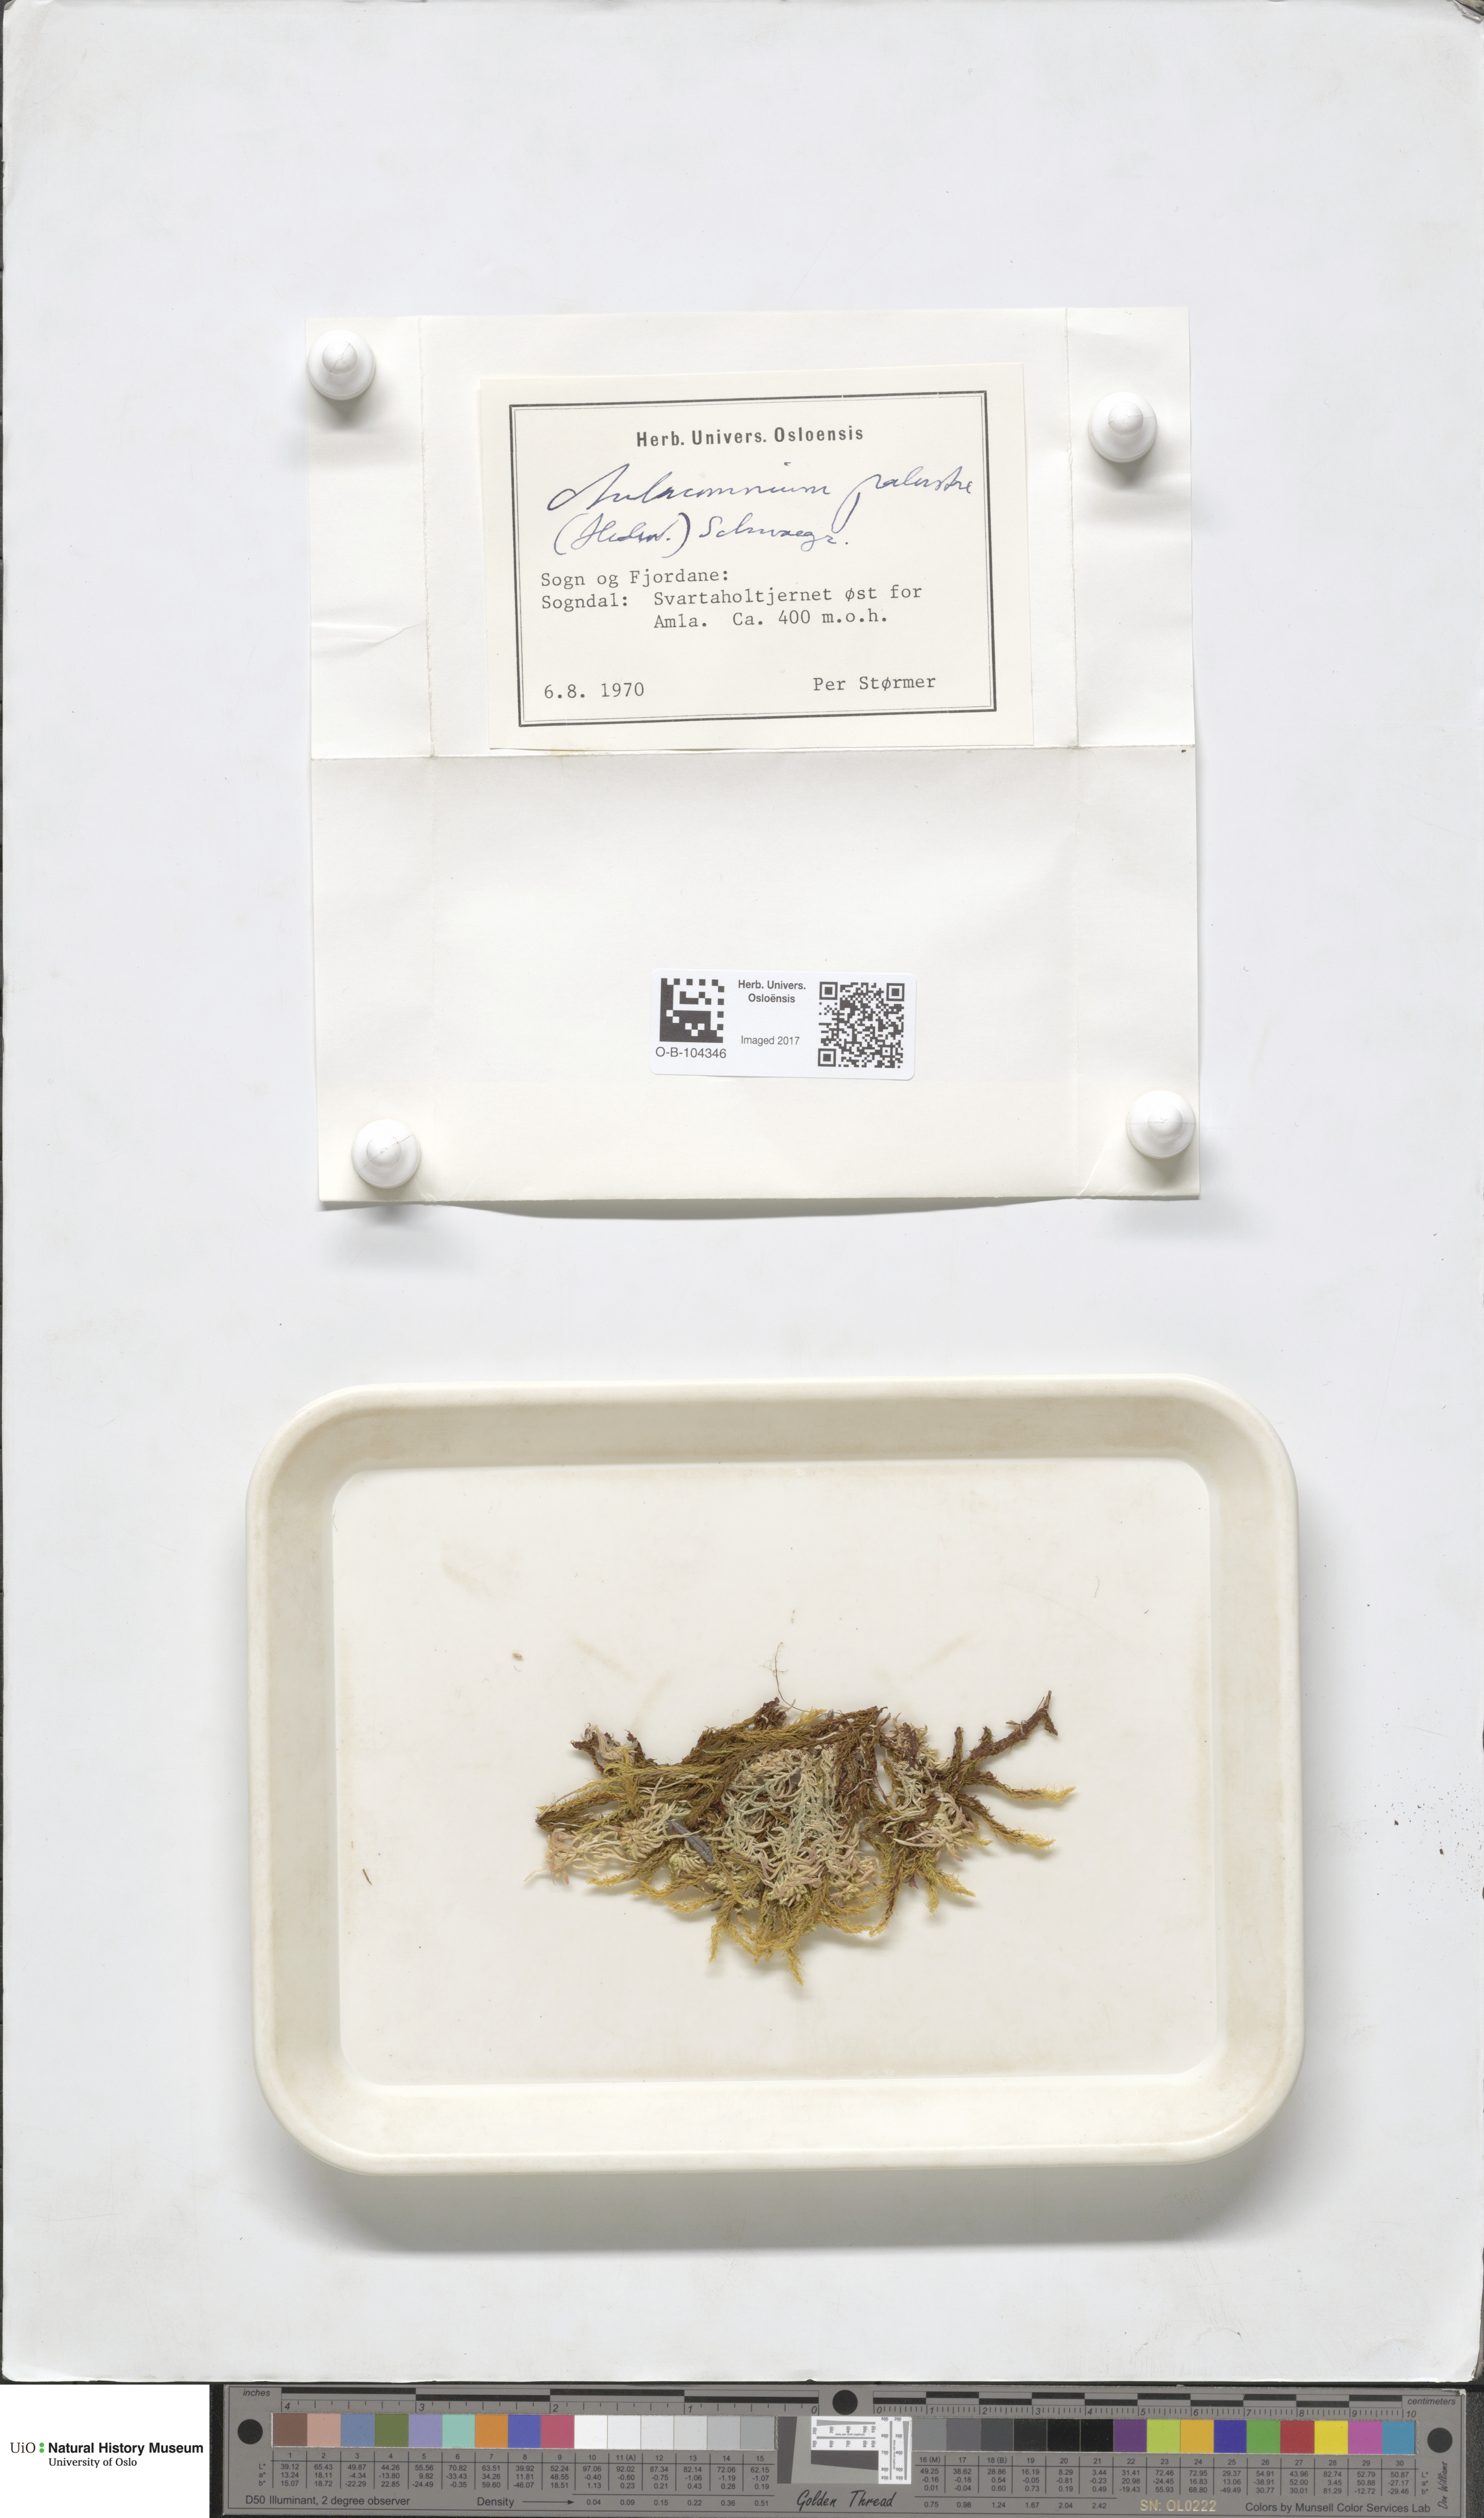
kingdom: Plantae
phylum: Bryophyta
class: Bryopsida
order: Aulacomniales
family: Aulacomniaceae
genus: Aulacomnium
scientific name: Aulacomnium palustre
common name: Bog groove-moss
